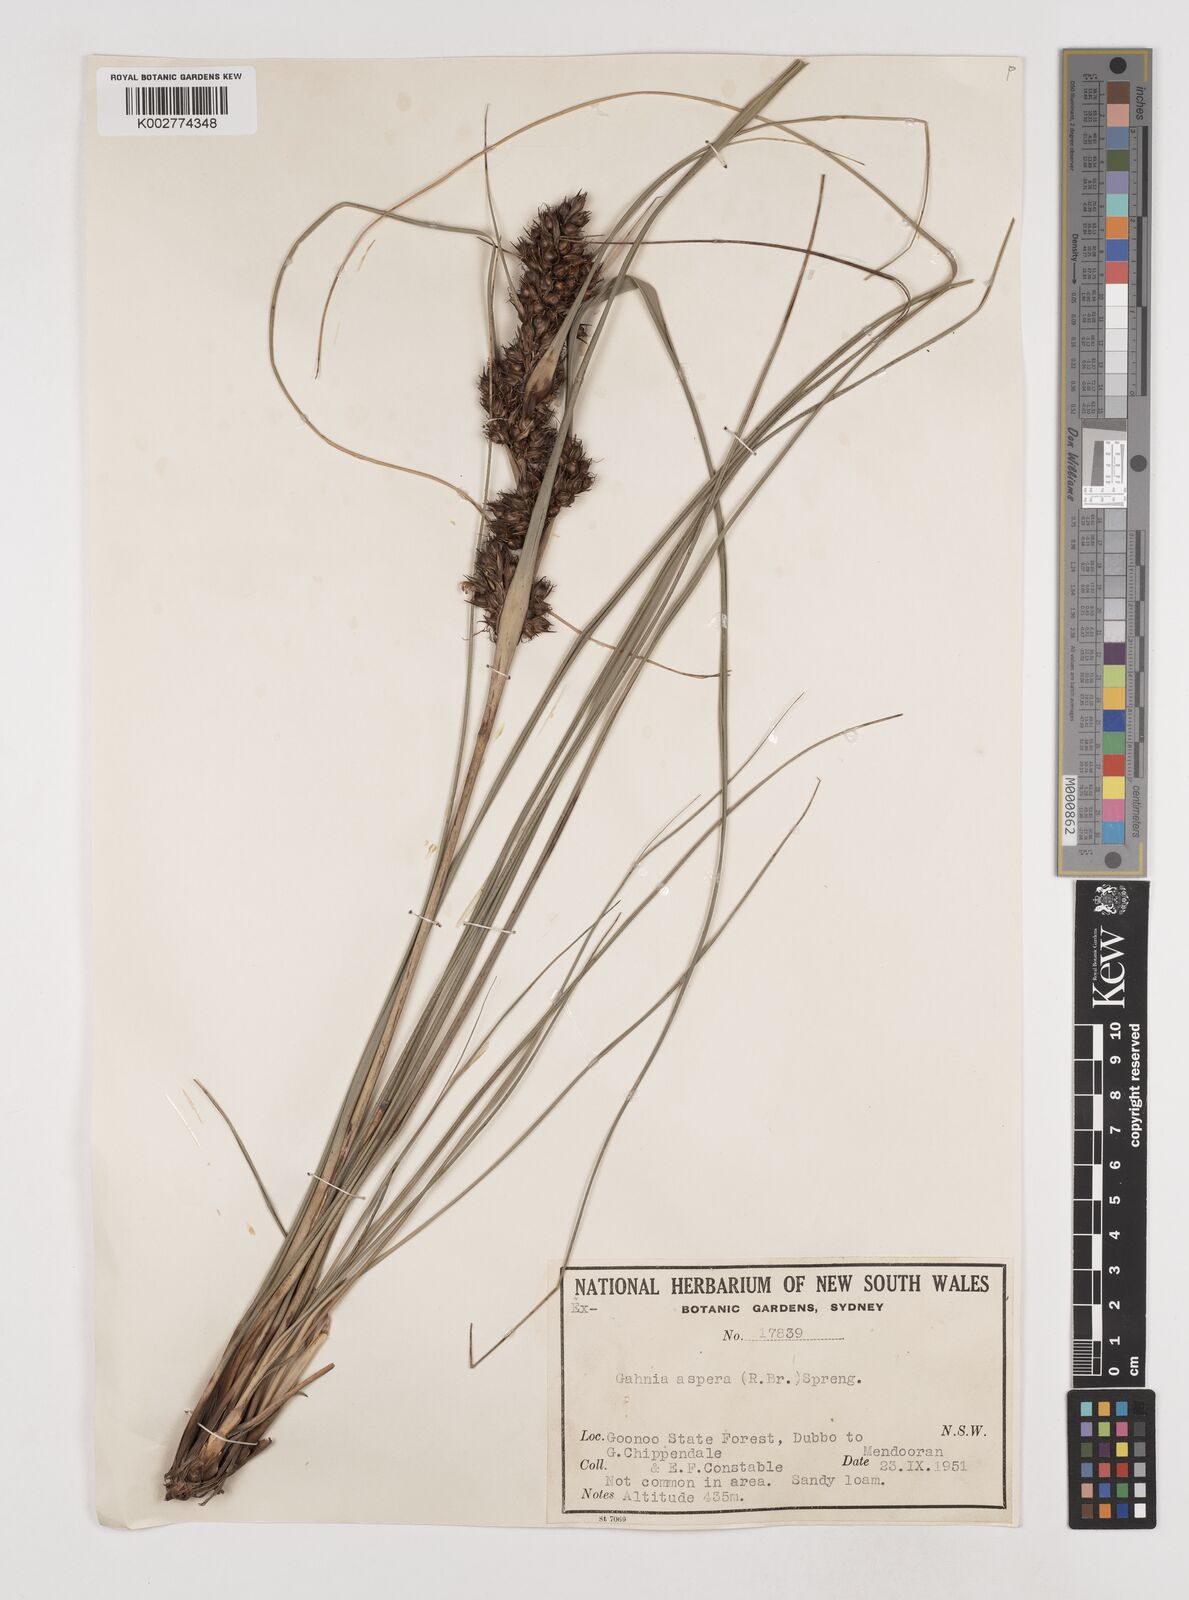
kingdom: Plantae
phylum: Tracheophyta
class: Liliopsida
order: Poales
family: Cyperaceae
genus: Gahnia
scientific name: Gahnia aspera
